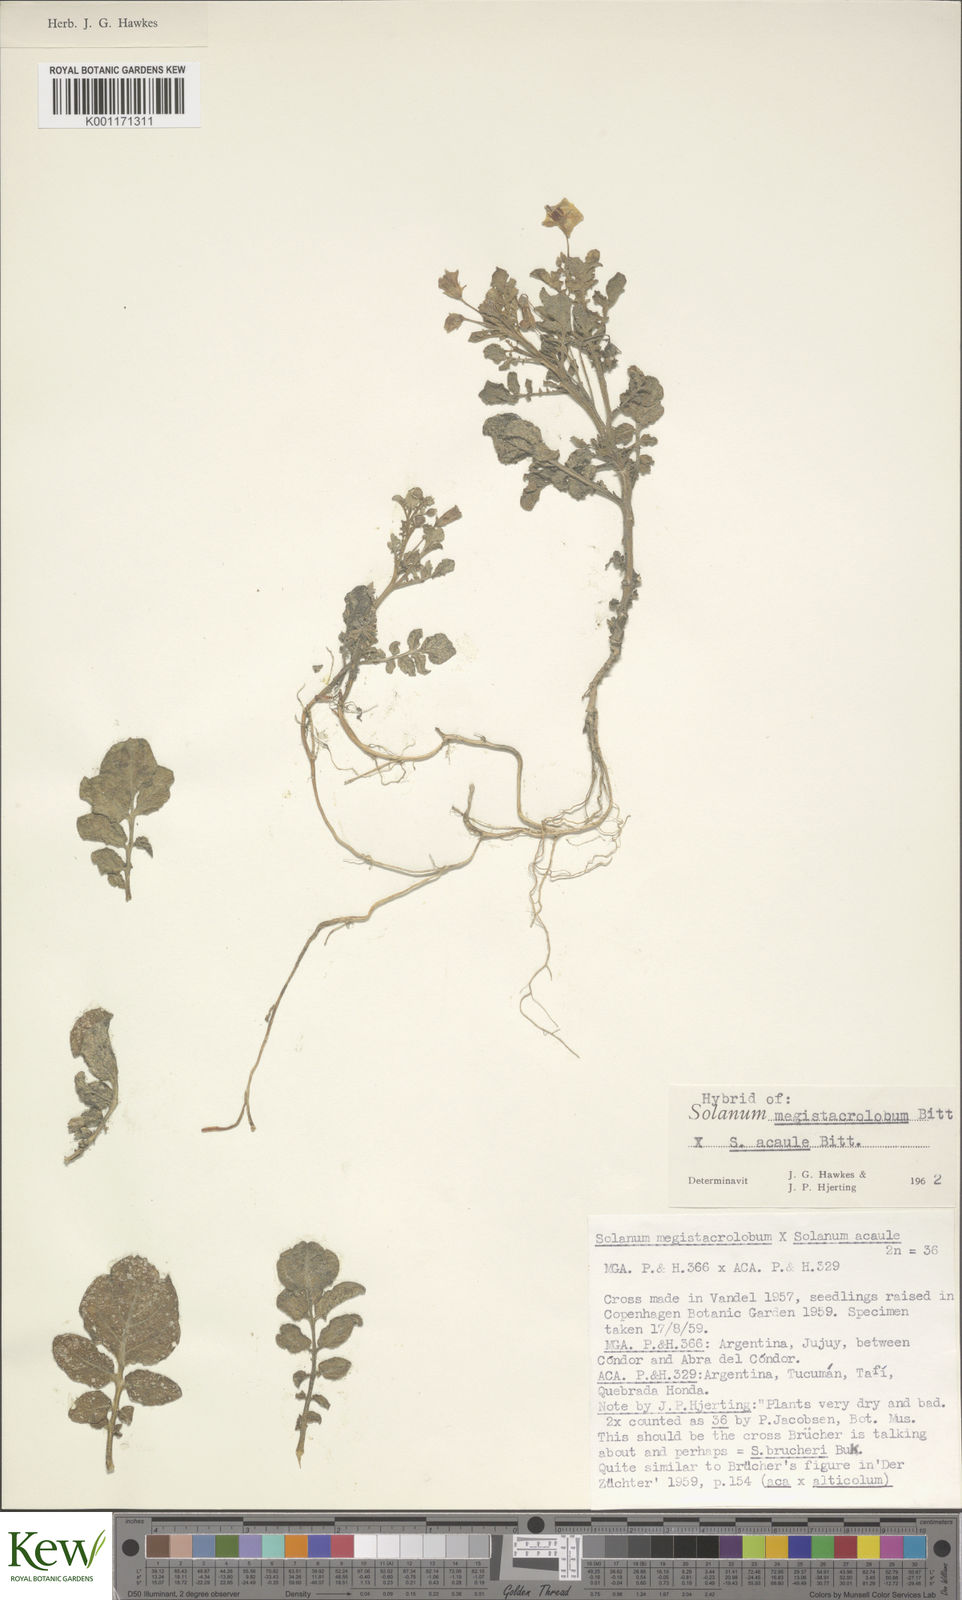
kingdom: Plantae
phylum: Tracheophyta
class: Magnoliopsida
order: Solanales
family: Solanaceae
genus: Solanum
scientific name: Solanum boliviense
